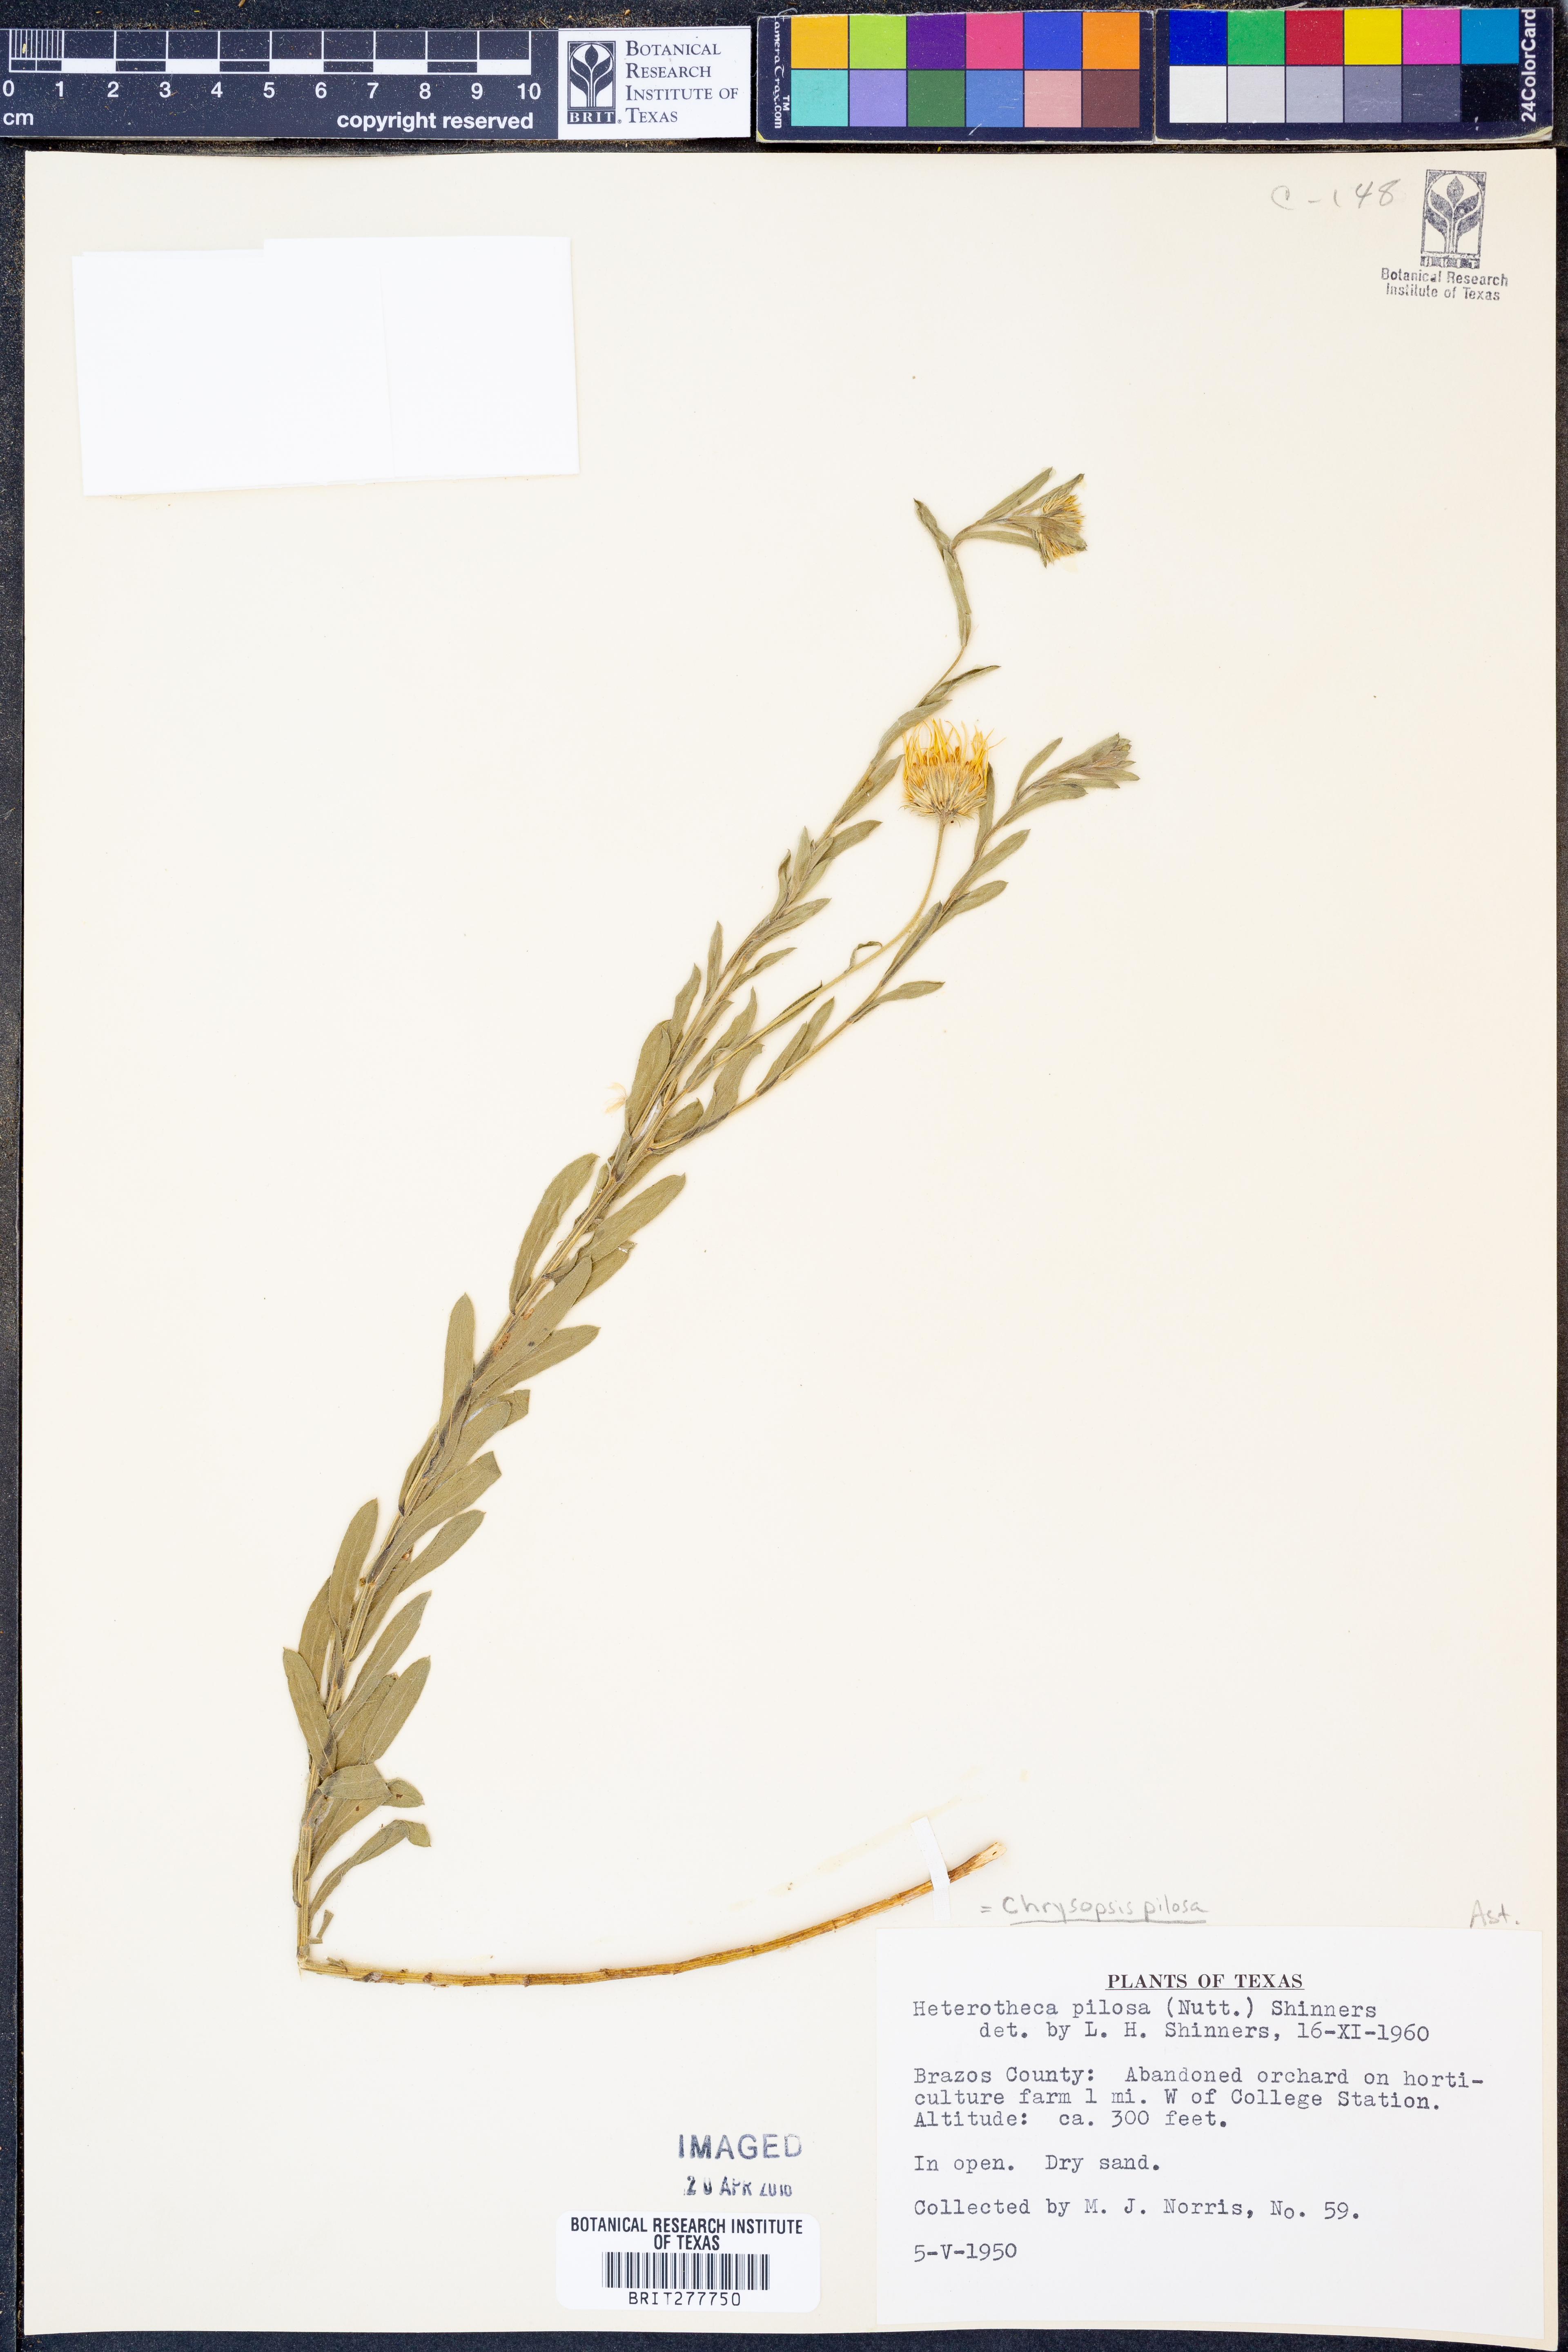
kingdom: Plantae
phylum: Tracheophyta
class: Magnoliopsida
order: Asterales
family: Asteraceae
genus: Bradburia
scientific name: Bradburia pilosa
